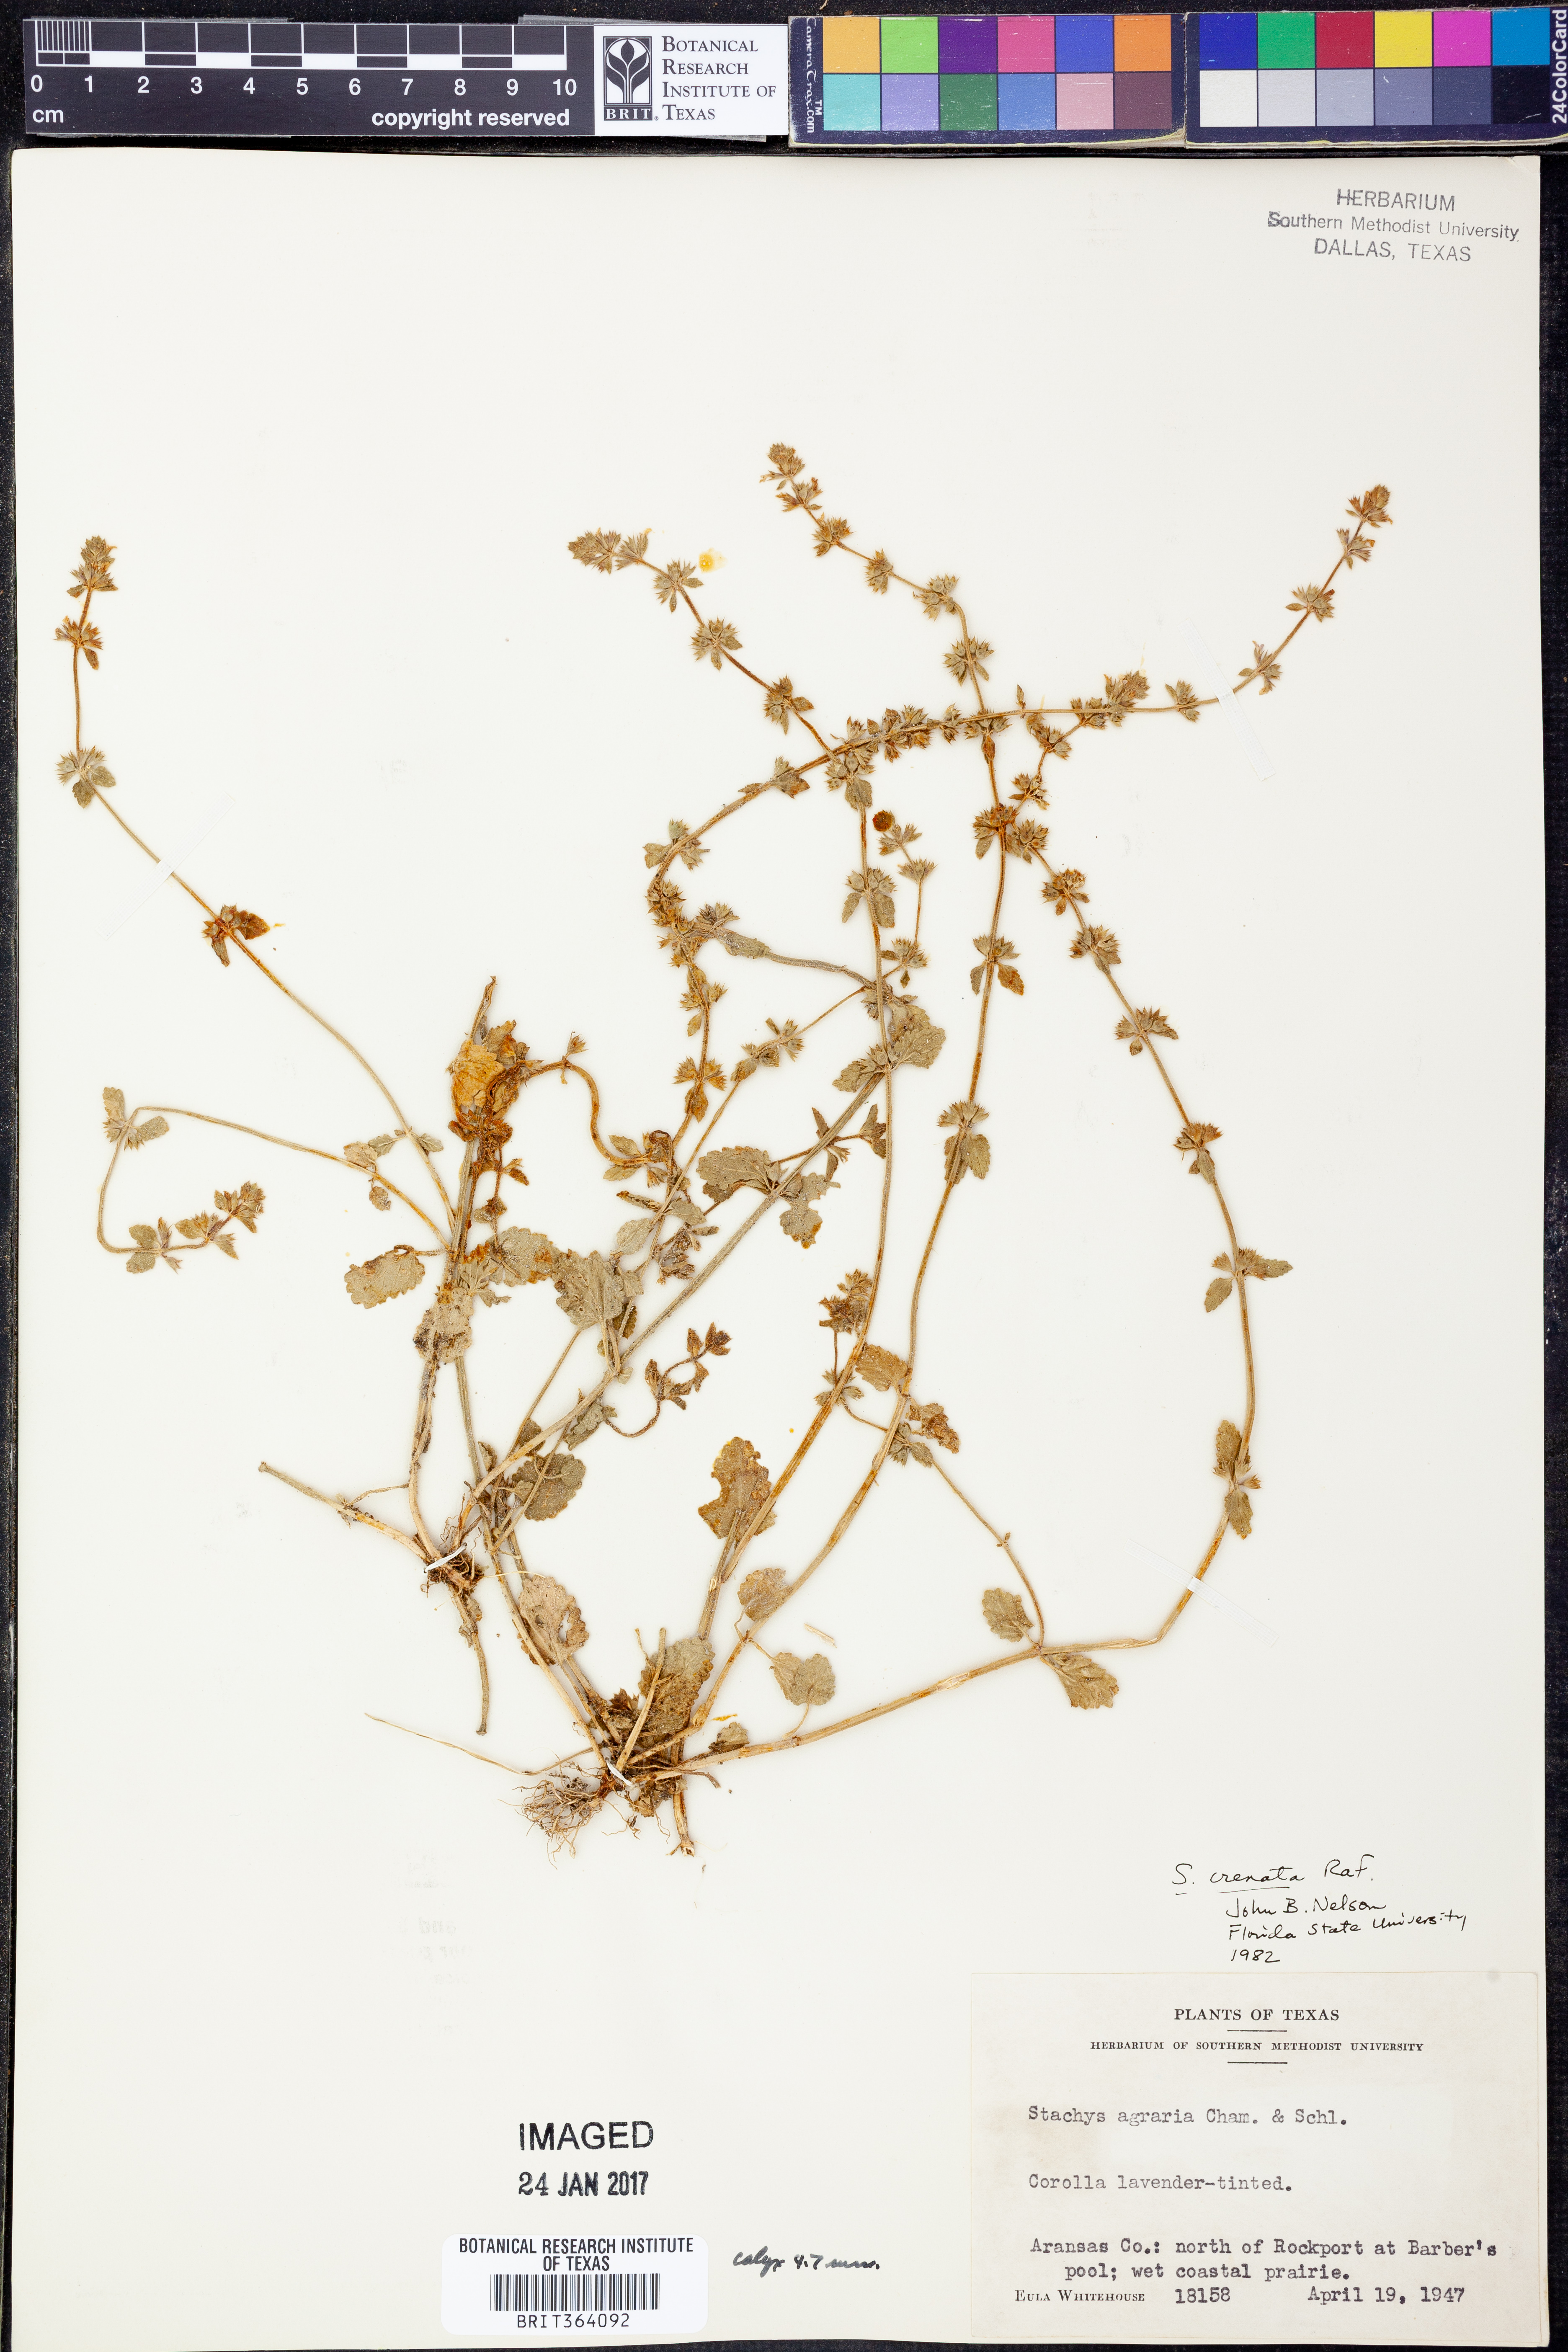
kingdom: Plantae
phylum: Tracheophyta
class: Magnoliopsida
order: Lamiales
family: Lamiaceae
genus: Stachys
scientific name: Stachys agraria
